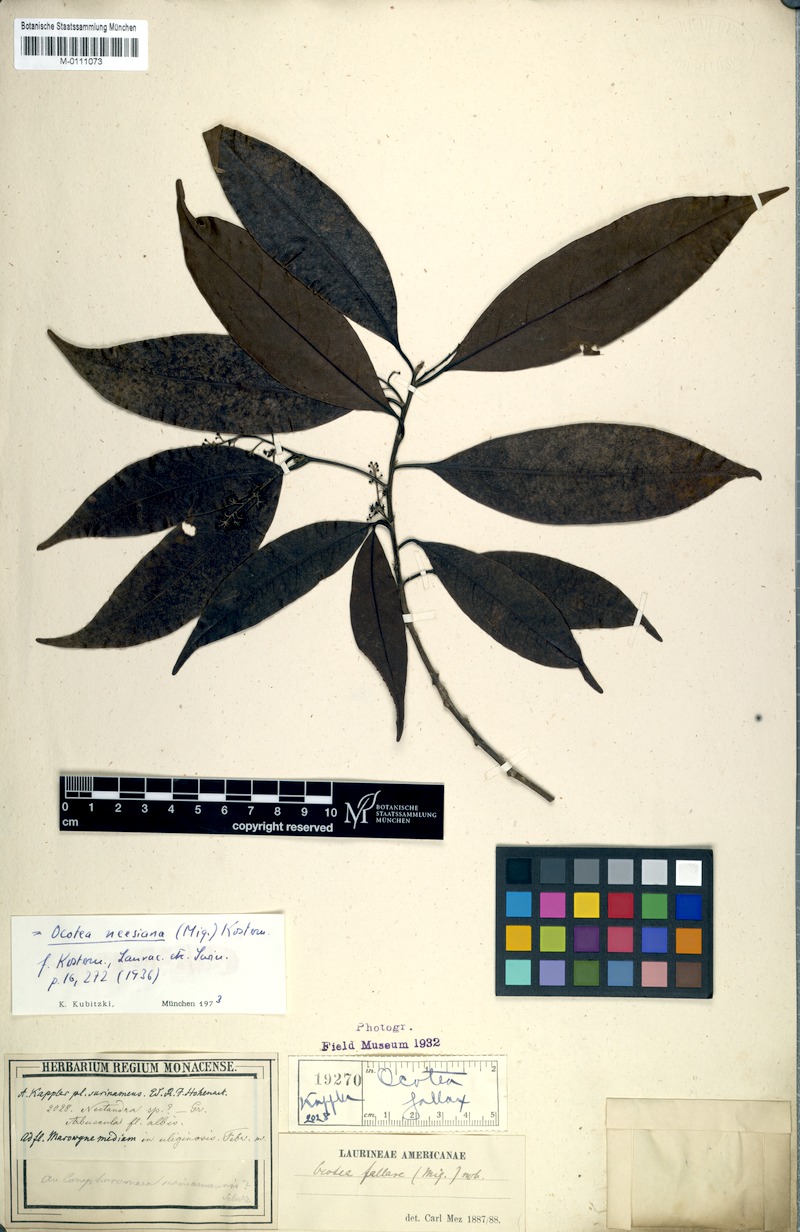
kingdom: Plantae
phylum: Tracheophyta
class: Magnoliopsida
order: Laurales
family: Lauraceae
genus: Ocotea
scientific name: Ocotea neesiana
